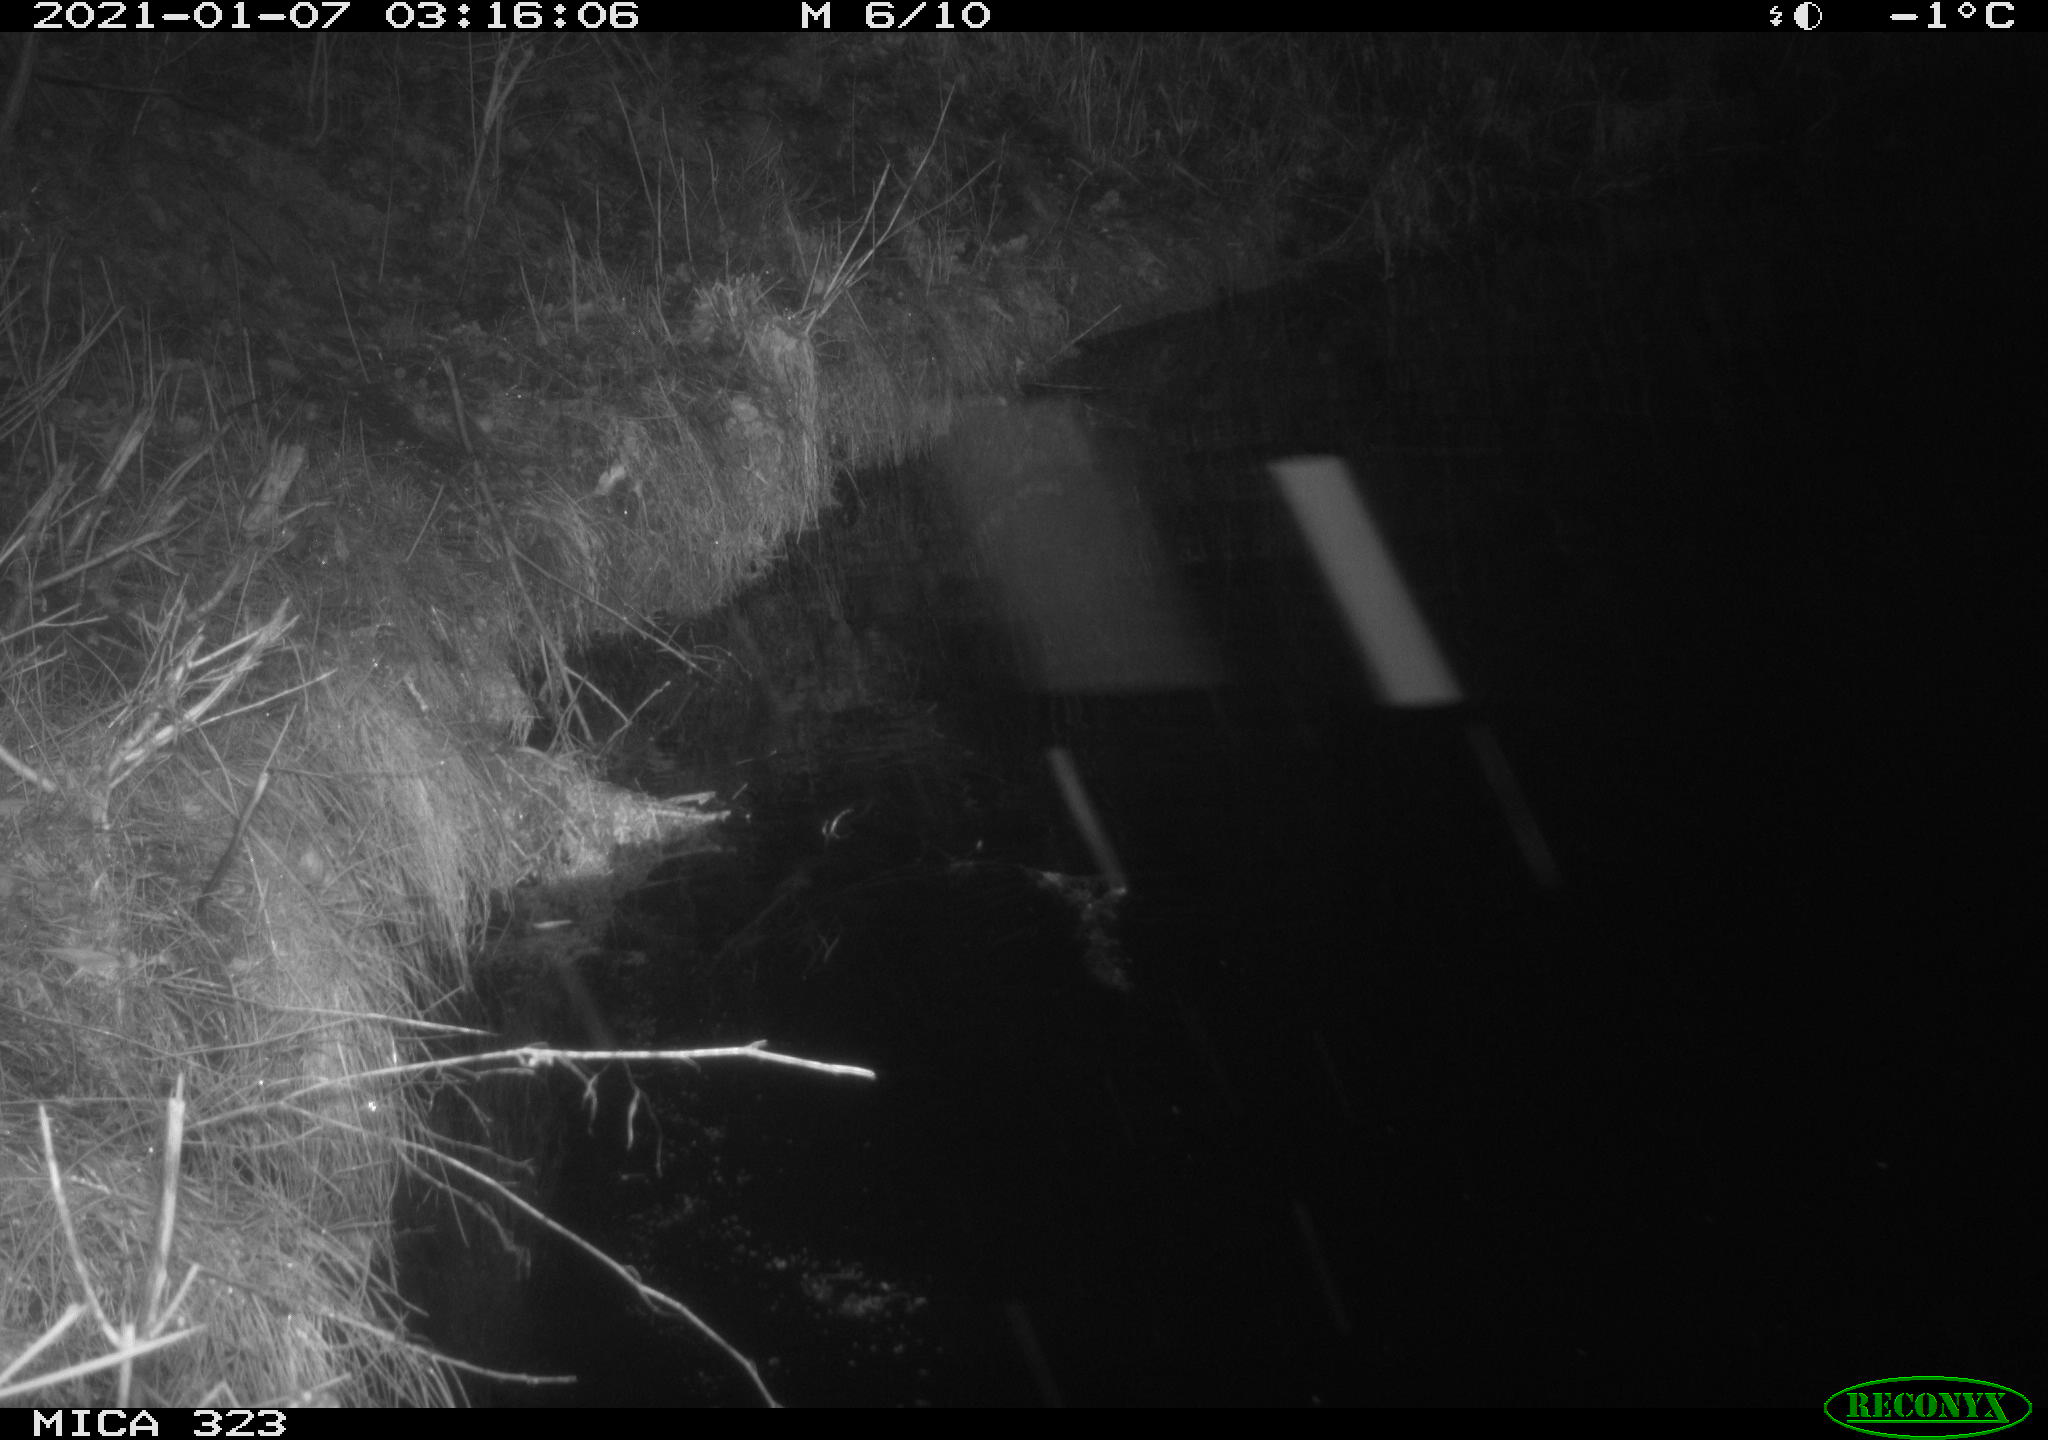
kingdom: Animalia
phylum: Chordata
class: Aves
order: Anseriformes
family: Anatidae
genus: Anas
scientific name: Anas platyrhynchos
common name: Mallard
